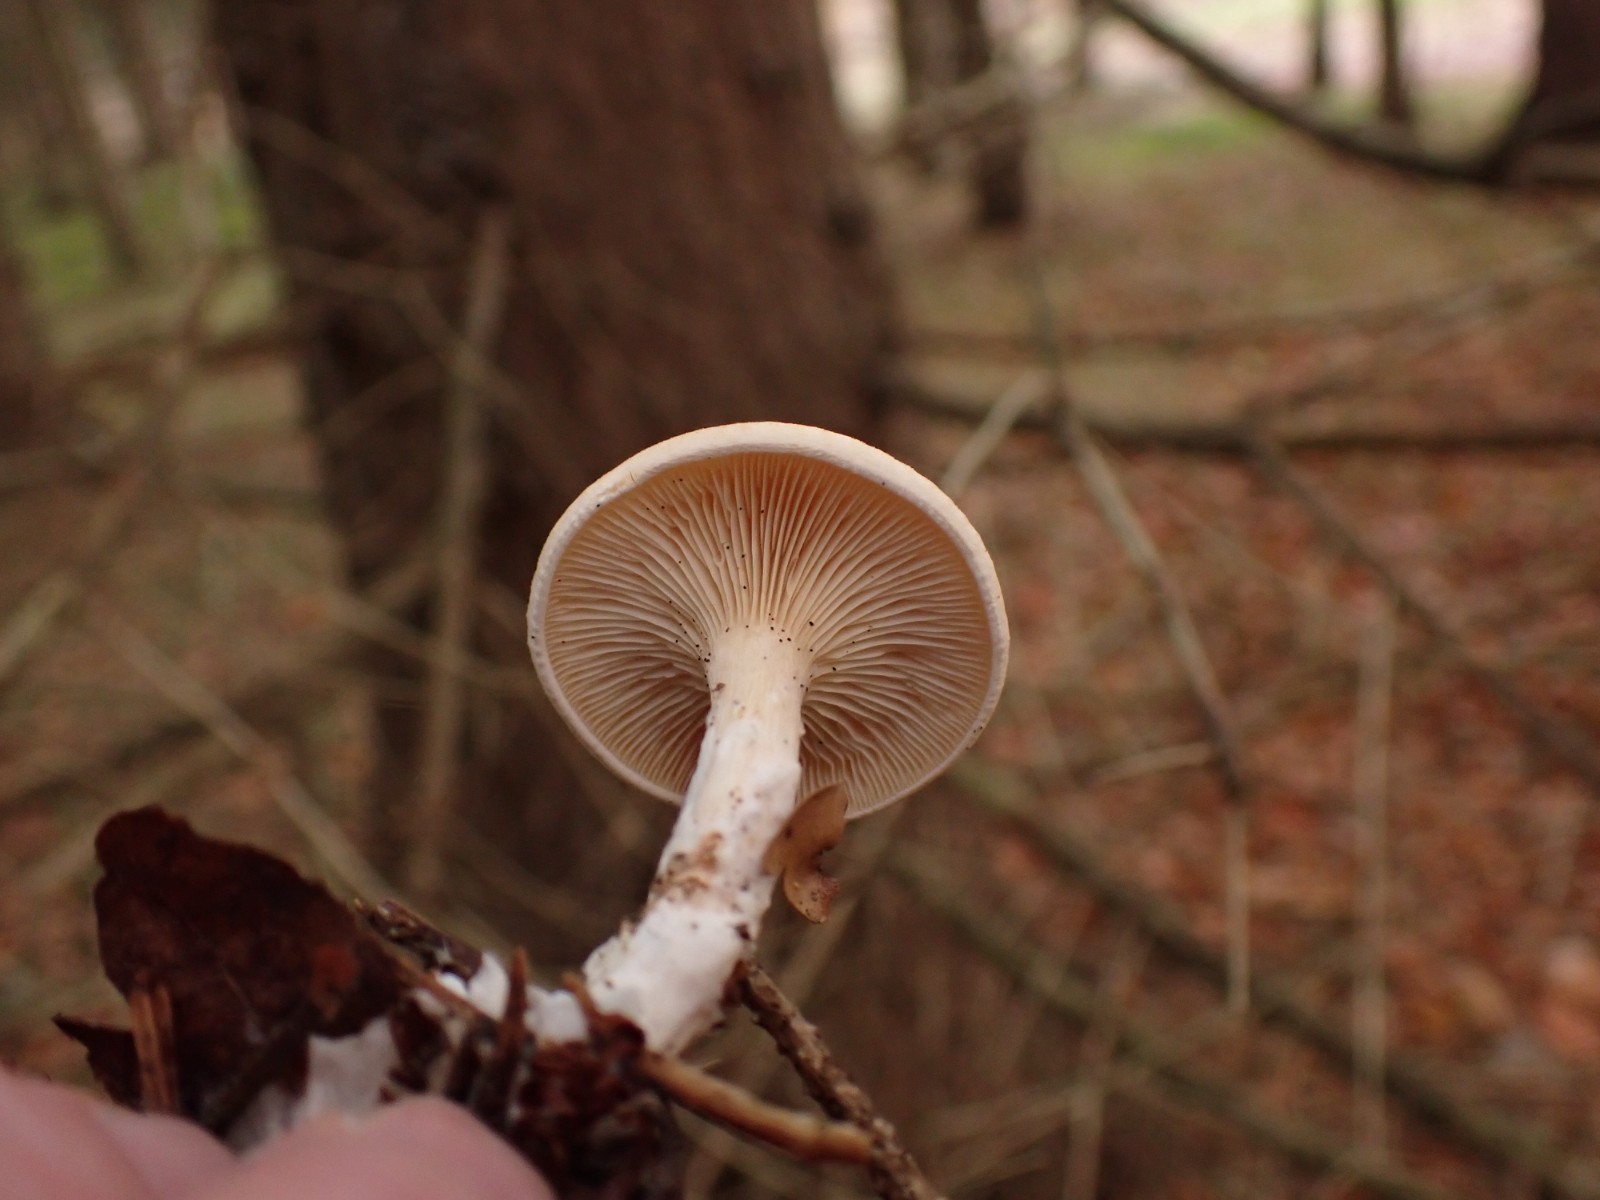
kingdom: Fungi
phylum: Basidiomycota
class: Agaricomycetes
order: Agaricales
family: Tricholomataceae
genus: Paralepista
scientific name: Paralepista gilva
